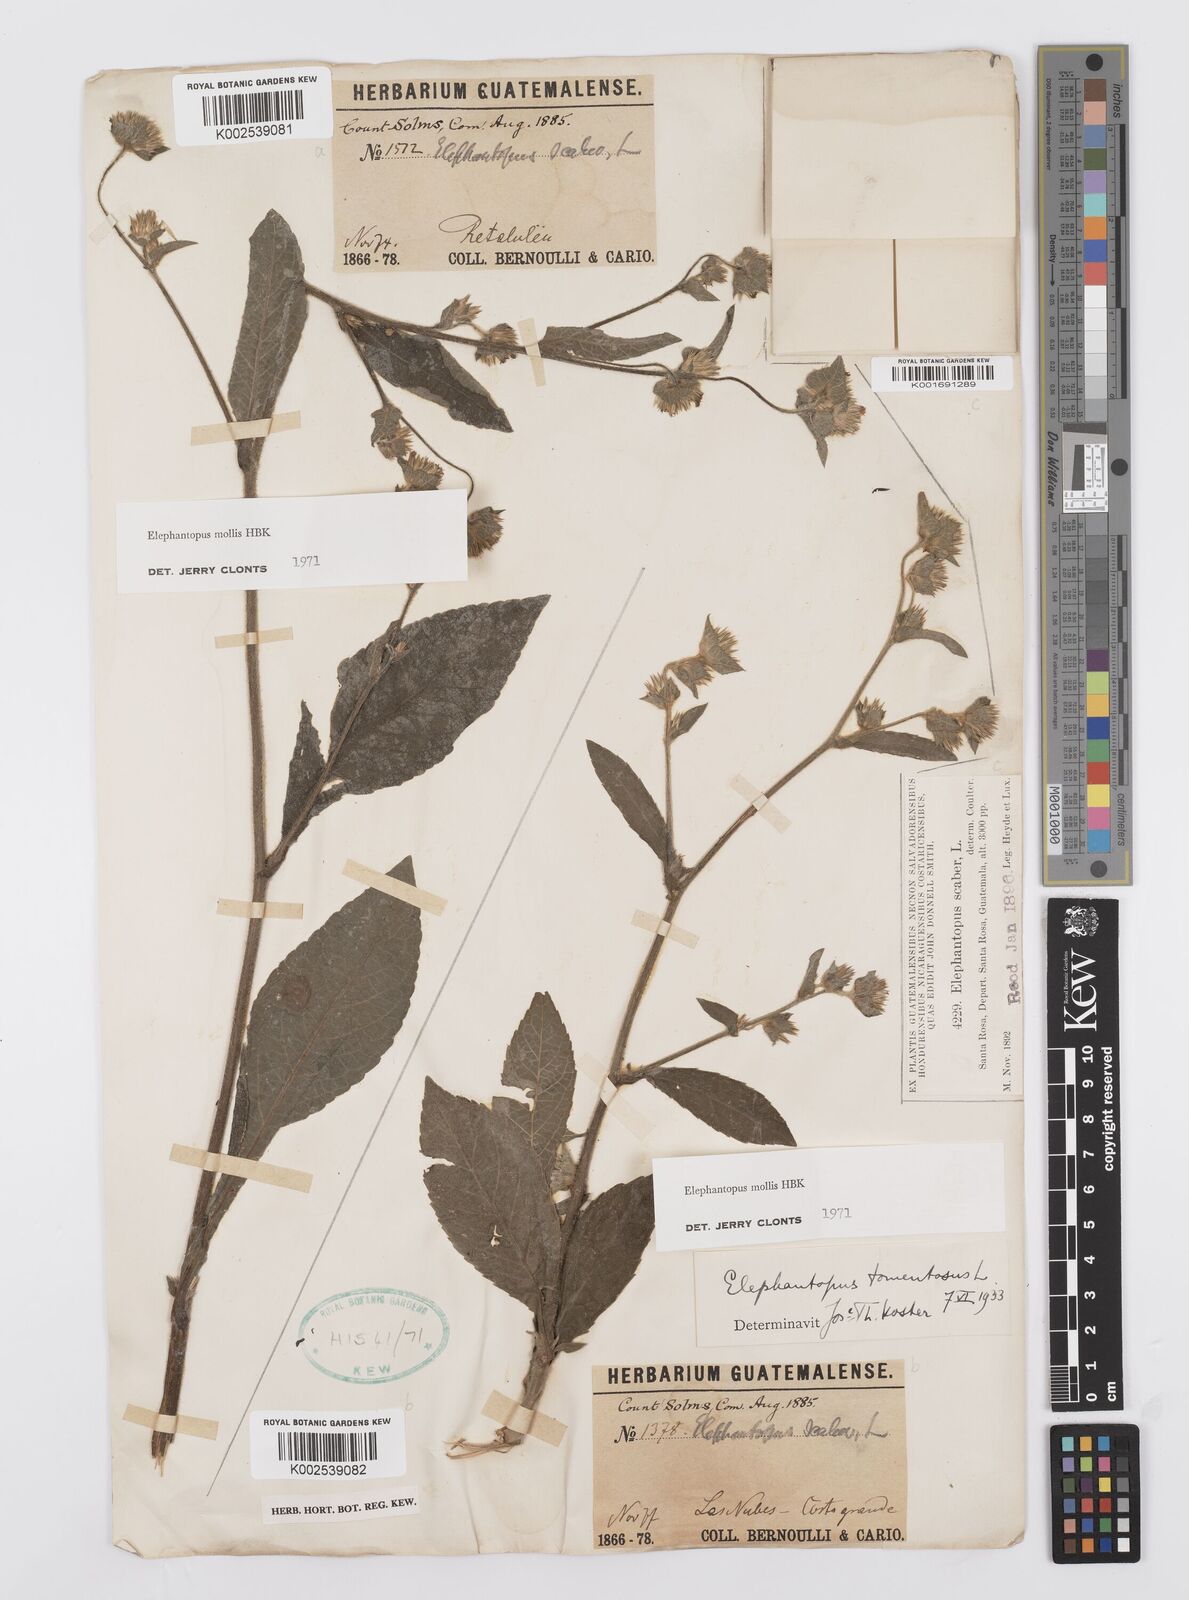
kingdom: Plantae
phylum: Tracheophyta
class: Magnoliopsida
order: Asterales
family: Asteraceae
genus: Elephantopus
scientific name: Elephantopus mollis
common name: Soft elephantsfoot
